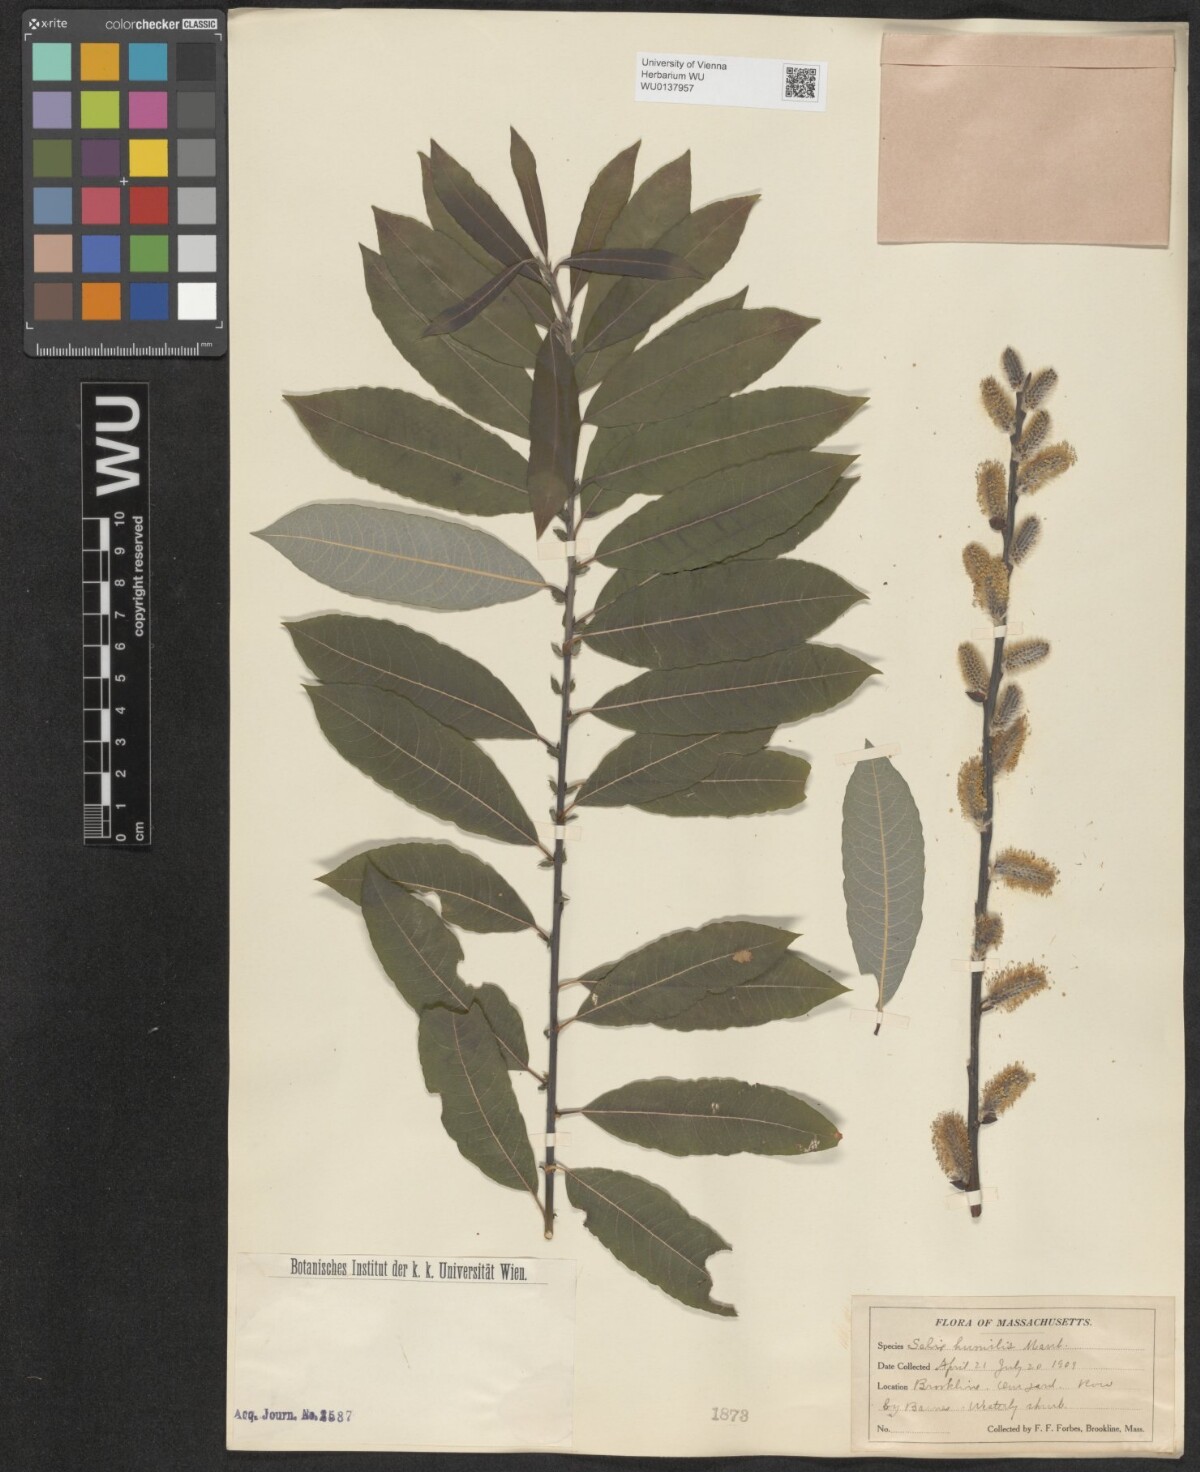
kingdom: Plantae
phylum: Tracheophyta
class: Magnoliopsida
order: Malpighiales
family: Salicaceae
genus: Salix
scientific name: Salix humilis
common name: Prairie willow
